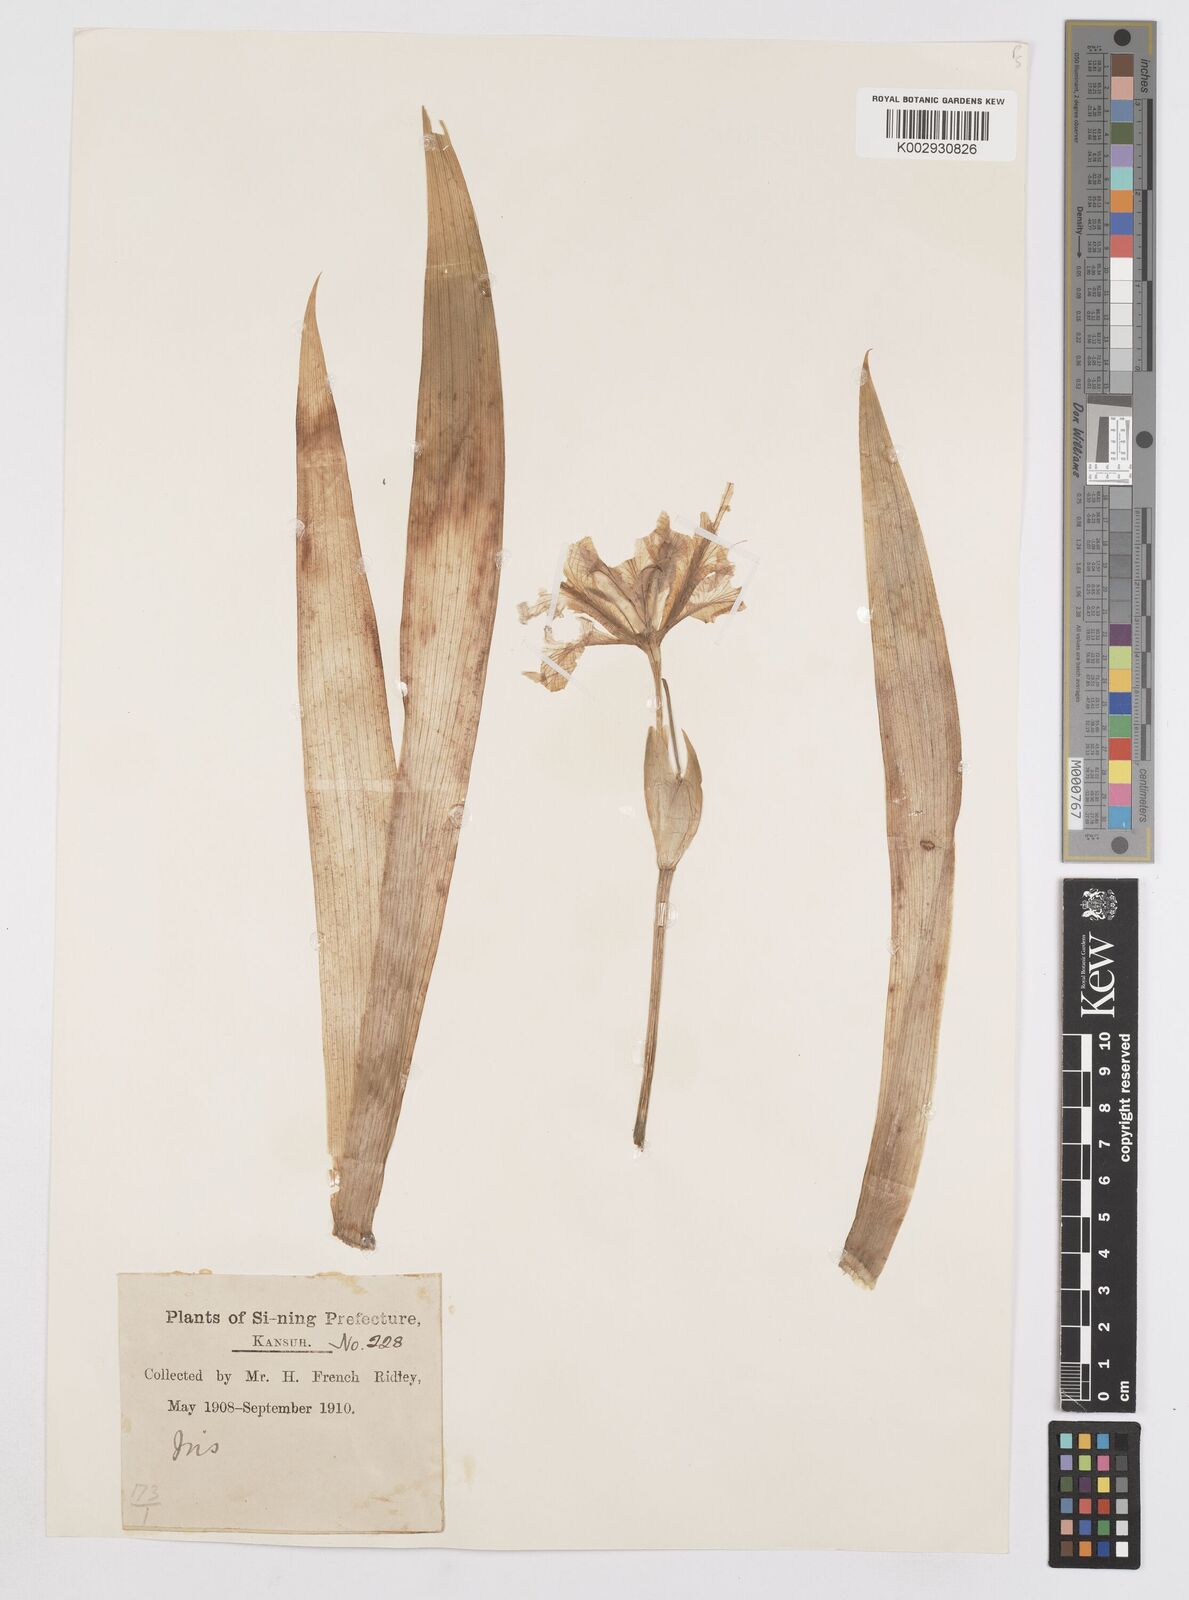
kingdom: Plantae
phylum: Tracheophyta
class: Liliopsida
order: Asparagales
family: Iridaceae
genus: Iris
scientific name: Iris tectorum
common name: Wall iris
